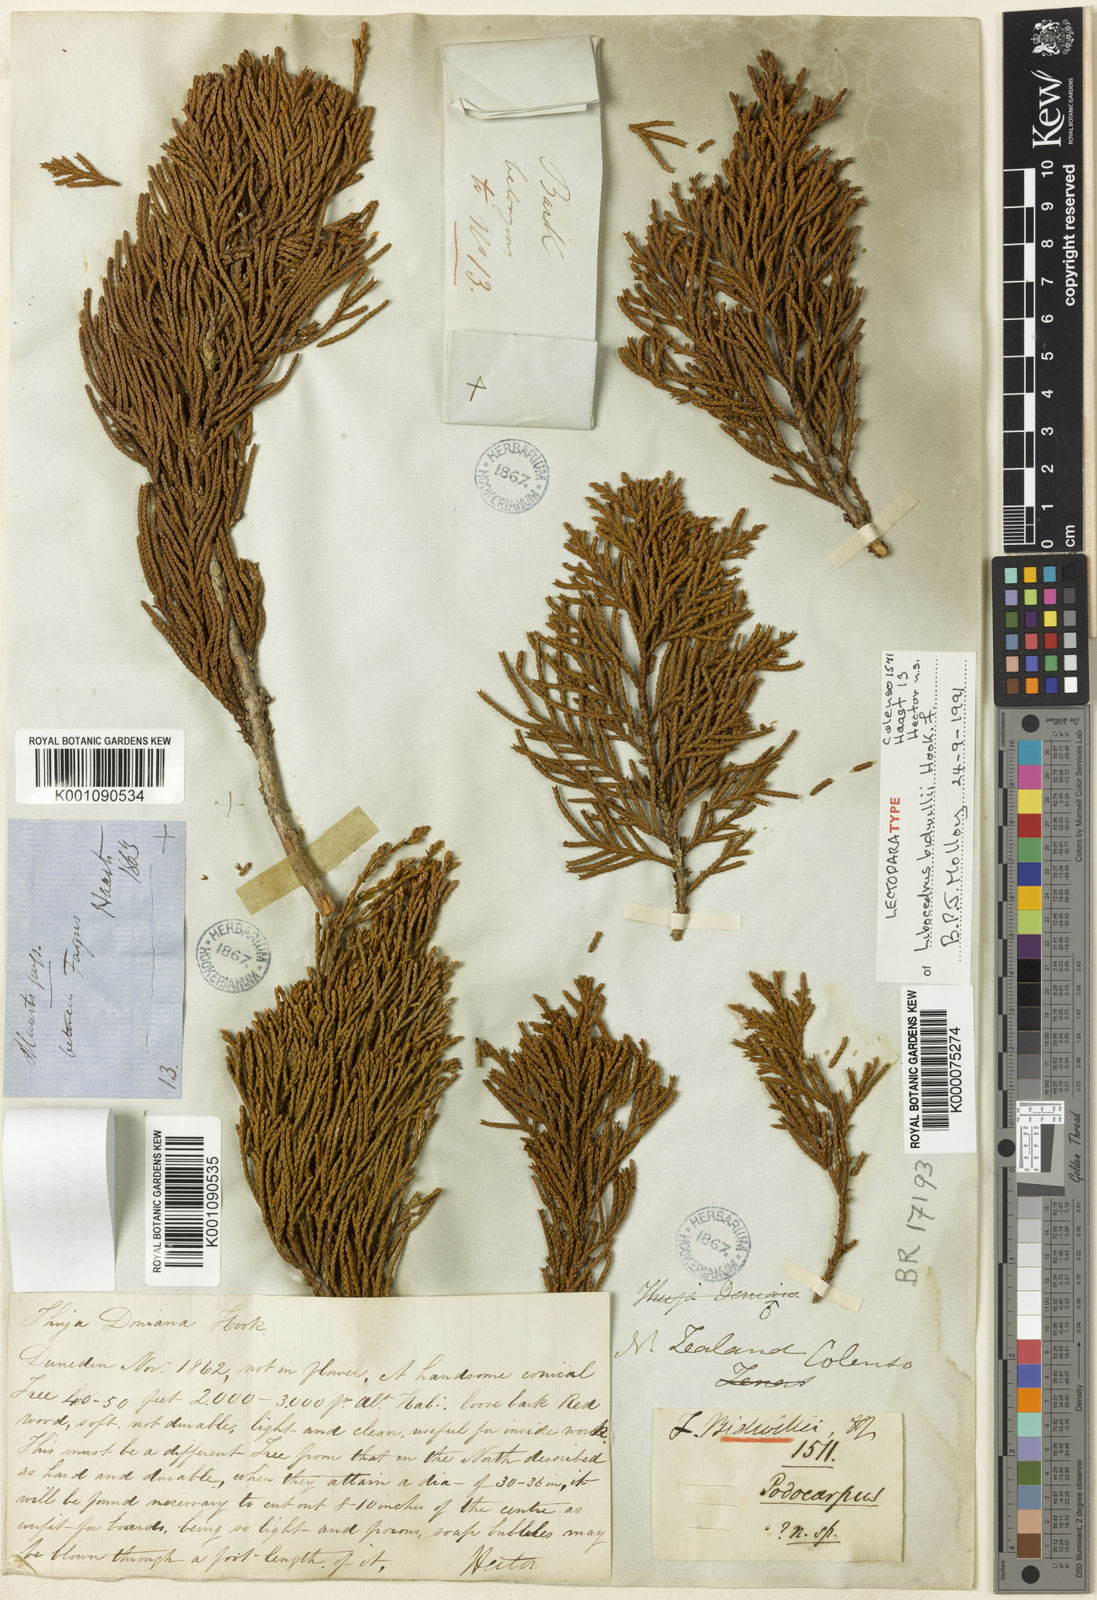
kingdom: Plantae
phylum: Tracheophyta
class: Pinopsida
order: Pinales
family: Cupressaceae
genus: Libocedrus
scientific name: Libocedrus bidwillii
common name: Cedar
